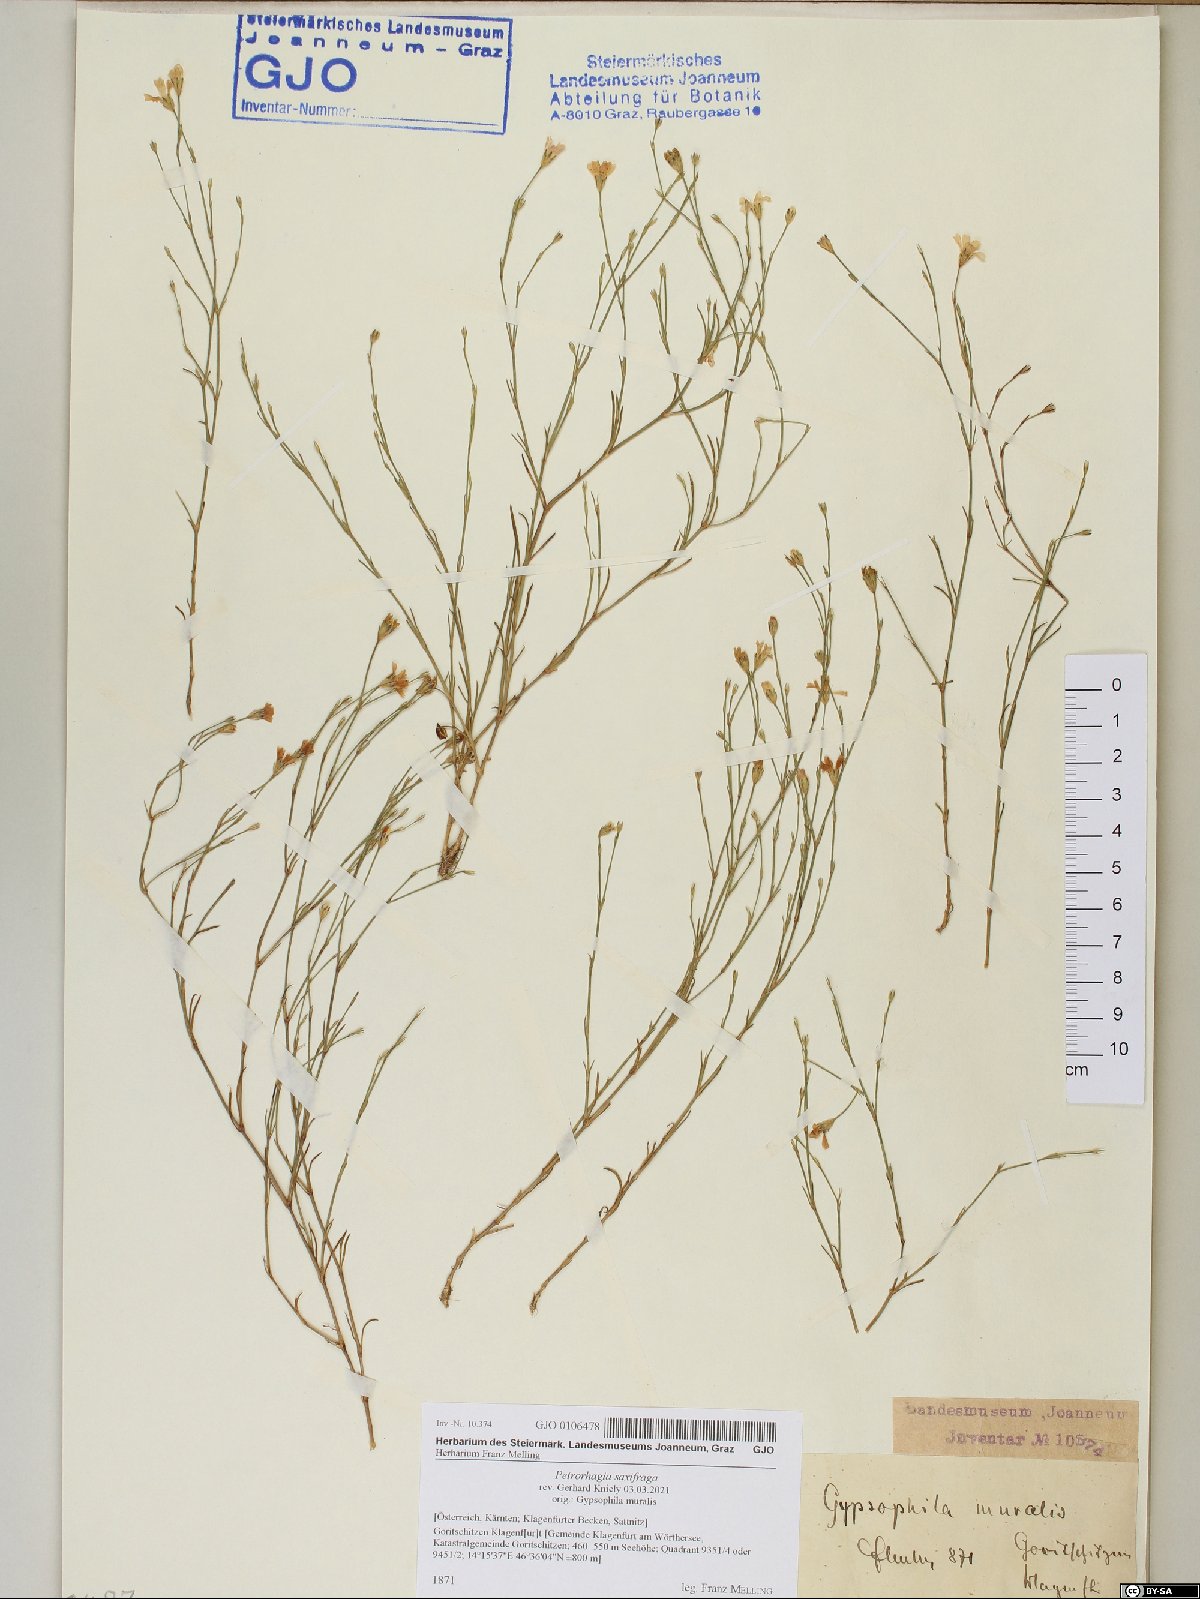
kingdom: Plantae
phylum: Tracheophyta
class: Magnoliopsida
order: Caryophyllales
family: Caryophyllaceae
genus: Petrorhagia
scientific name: Petrorhagia saxifraga
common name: Tunicflower
